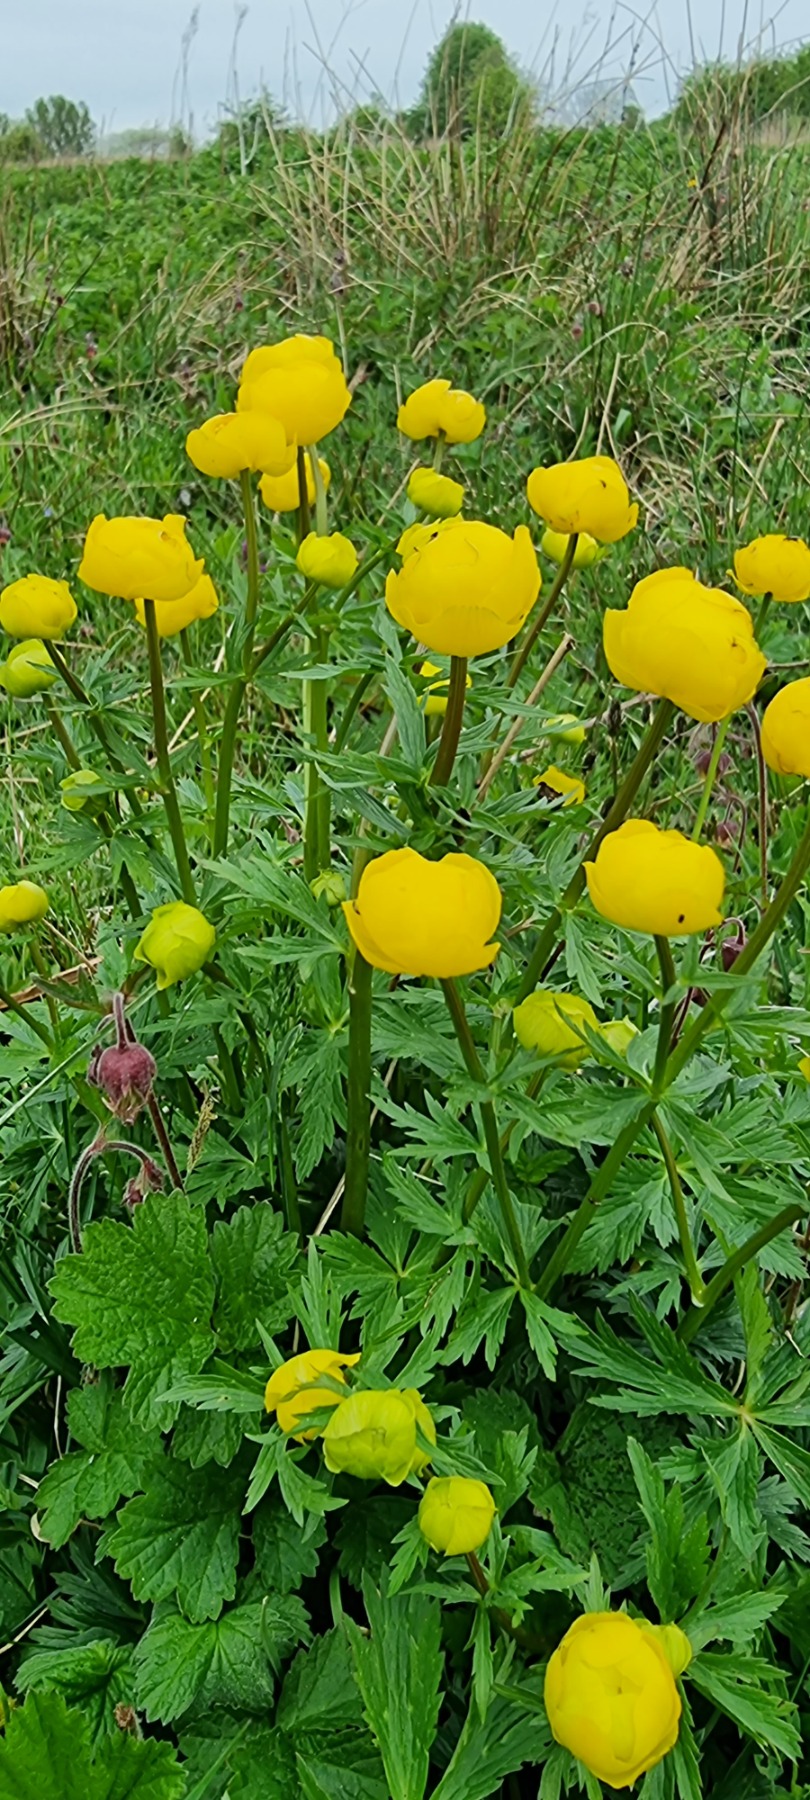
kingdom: Plantae
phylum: Tracheophyta
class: Magnoliopsida
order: Ranunculales
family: Ranunculaceae
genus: Trollius
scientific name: Trollius europaeus
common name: Engblomme
